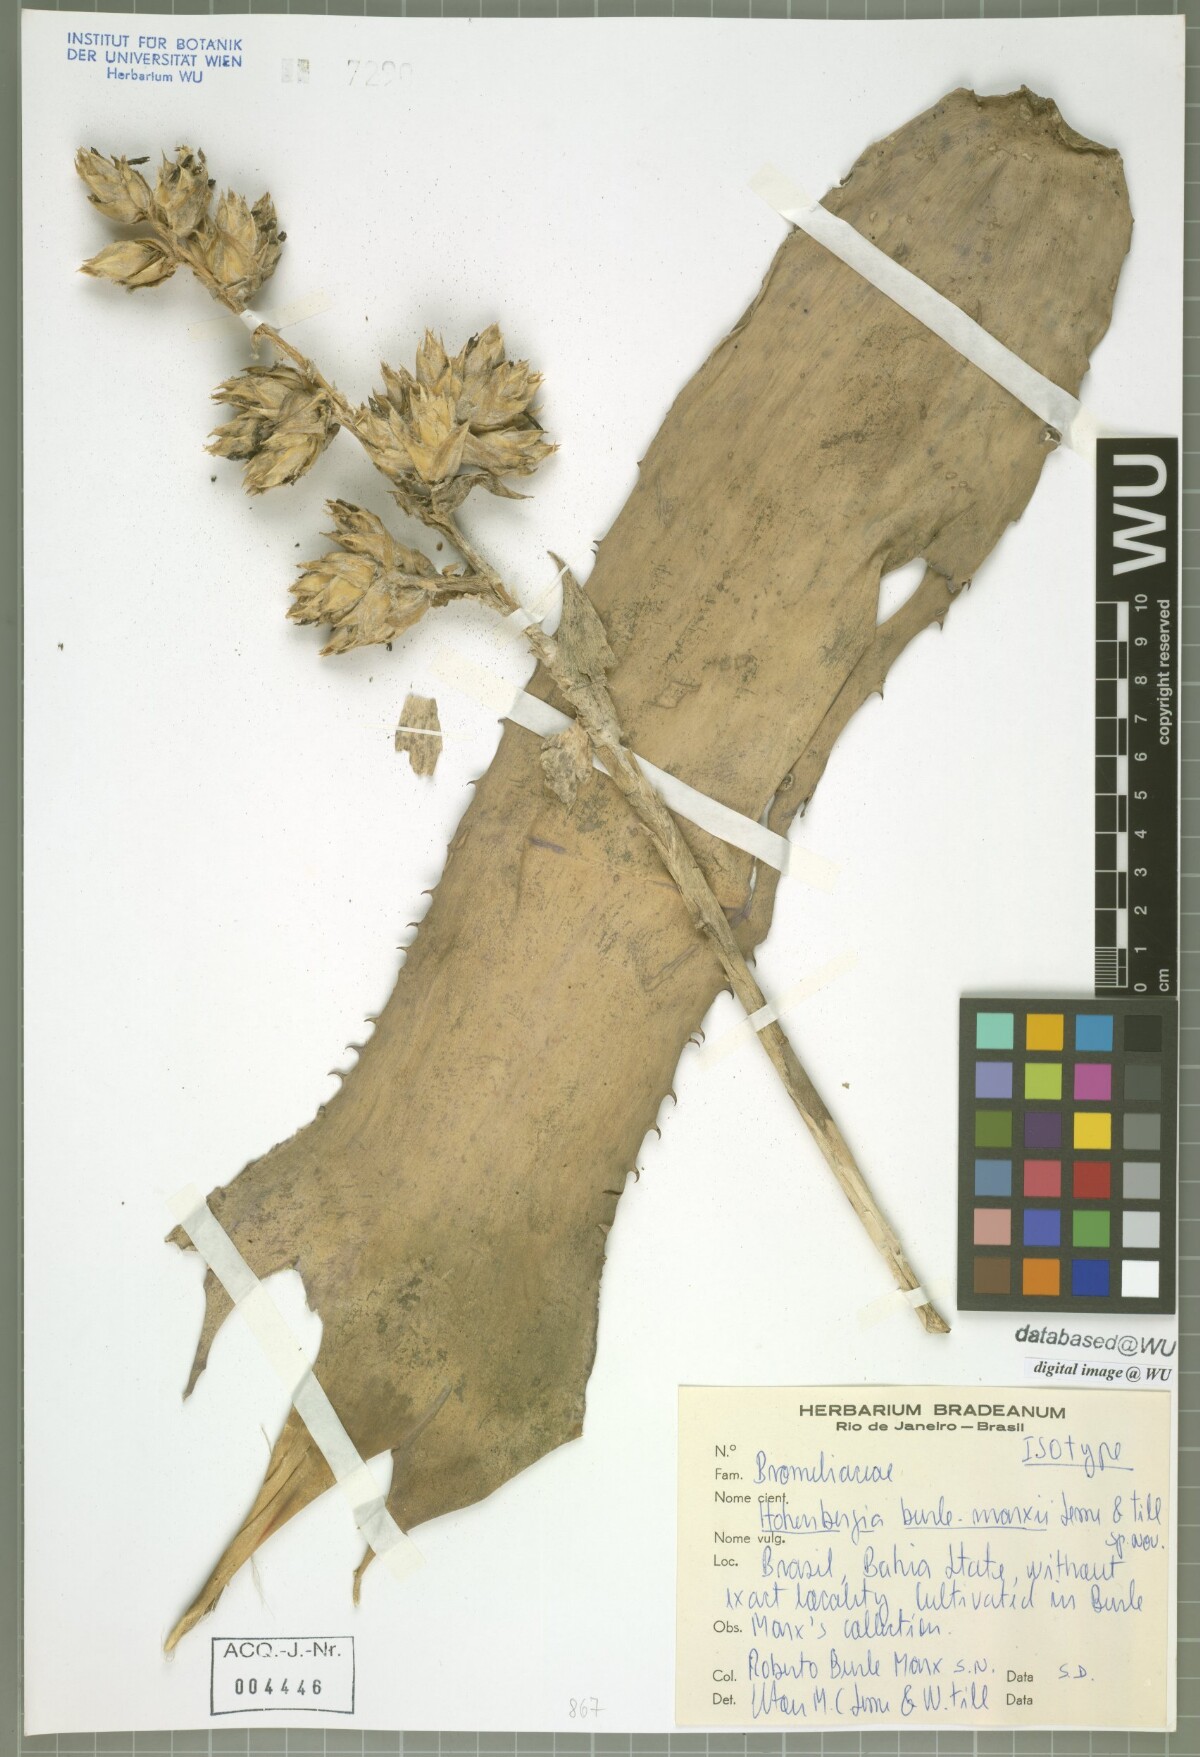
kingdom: Plantae
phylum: Tracheophyta
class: Liliopsida
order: Poales
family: Bromeliaceae
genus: Hohenbergia
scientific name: Hohenbergia burle-marxii
